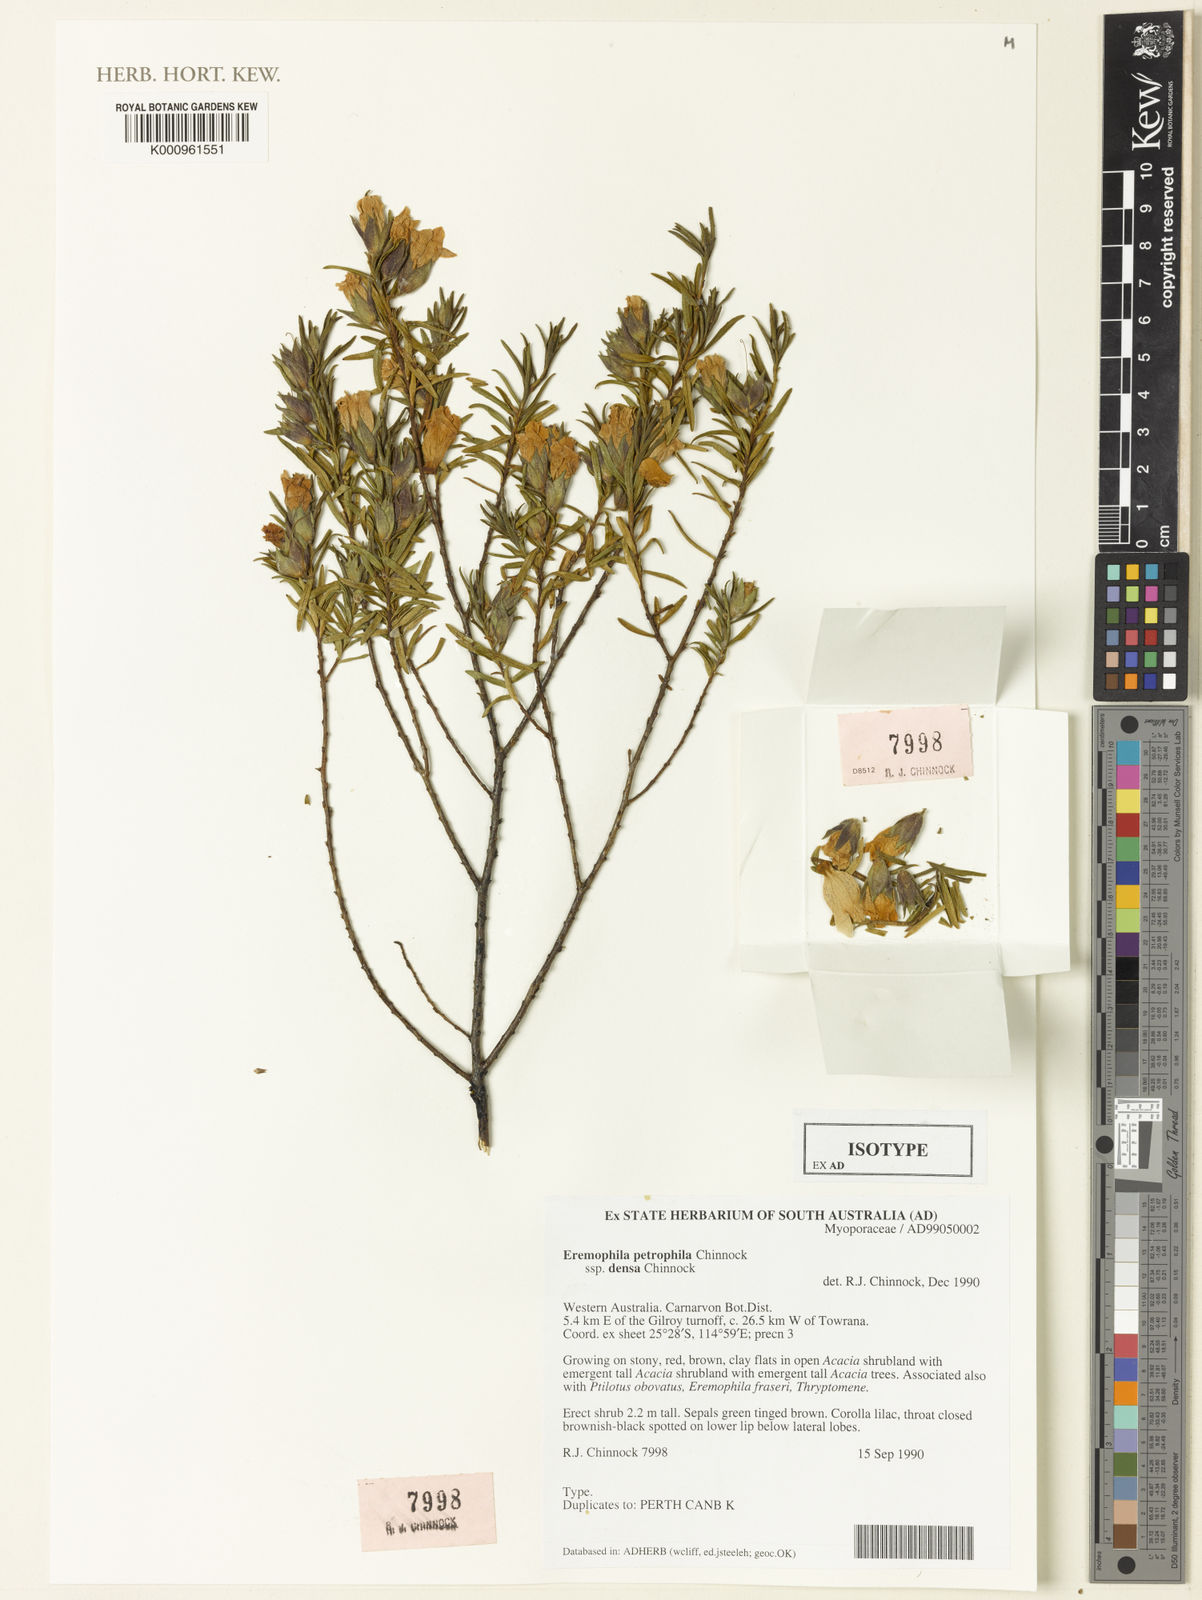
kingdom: Plantae
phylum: Tracheophyta
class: Magnoliopsida
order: Lamiales
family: Scrophulariaceae
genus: Eremophila
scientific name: Eremophila petrophila
